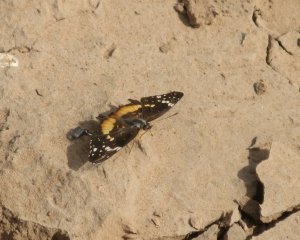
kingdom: Animalia
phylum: Arthropoda
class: Insecta
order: Lepidoptera
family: Nymphalidae
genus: Chlosyne
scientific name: Chlosyne lacinia
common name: Bordered Patch
